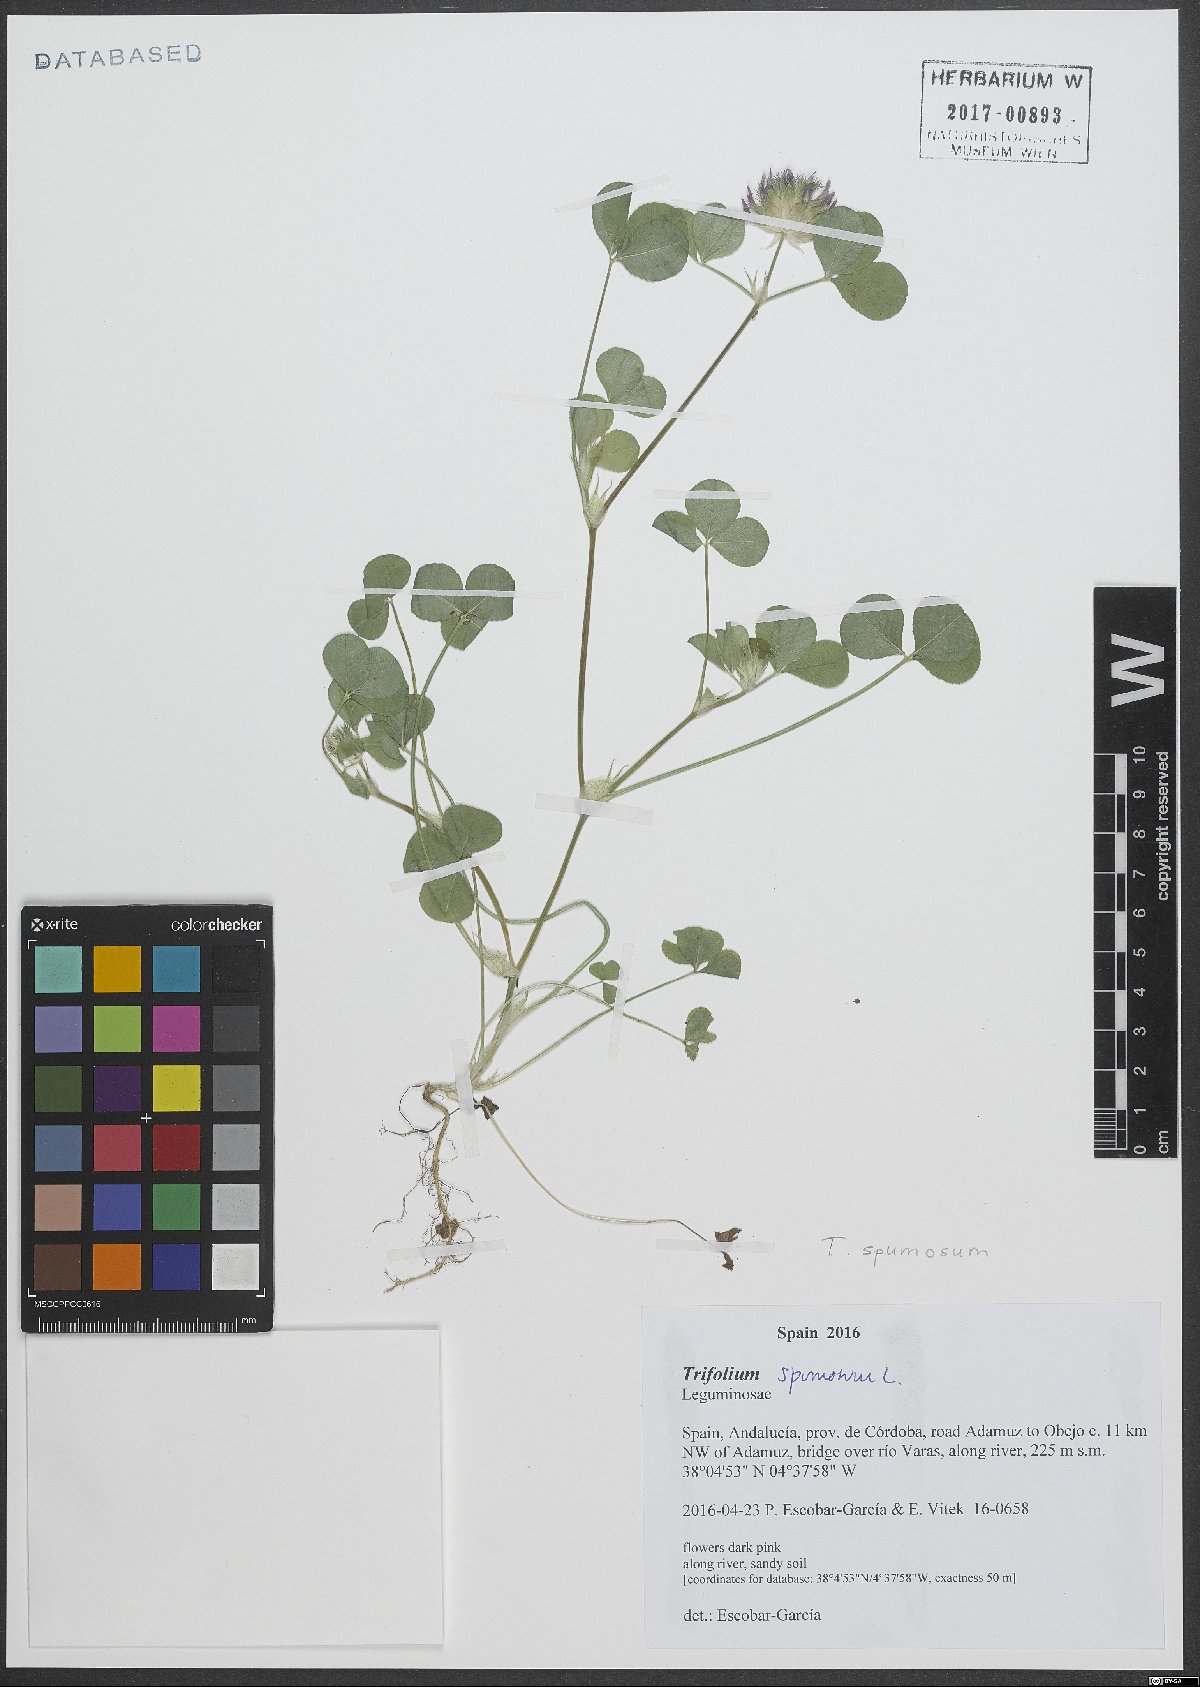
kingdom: Plantae
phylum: Tracheophyta
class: Magnoliopsida
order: Fabales
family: Fabaceae
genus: Trifolium
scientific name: Trifolium spumosum
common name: Mediterranean clover
